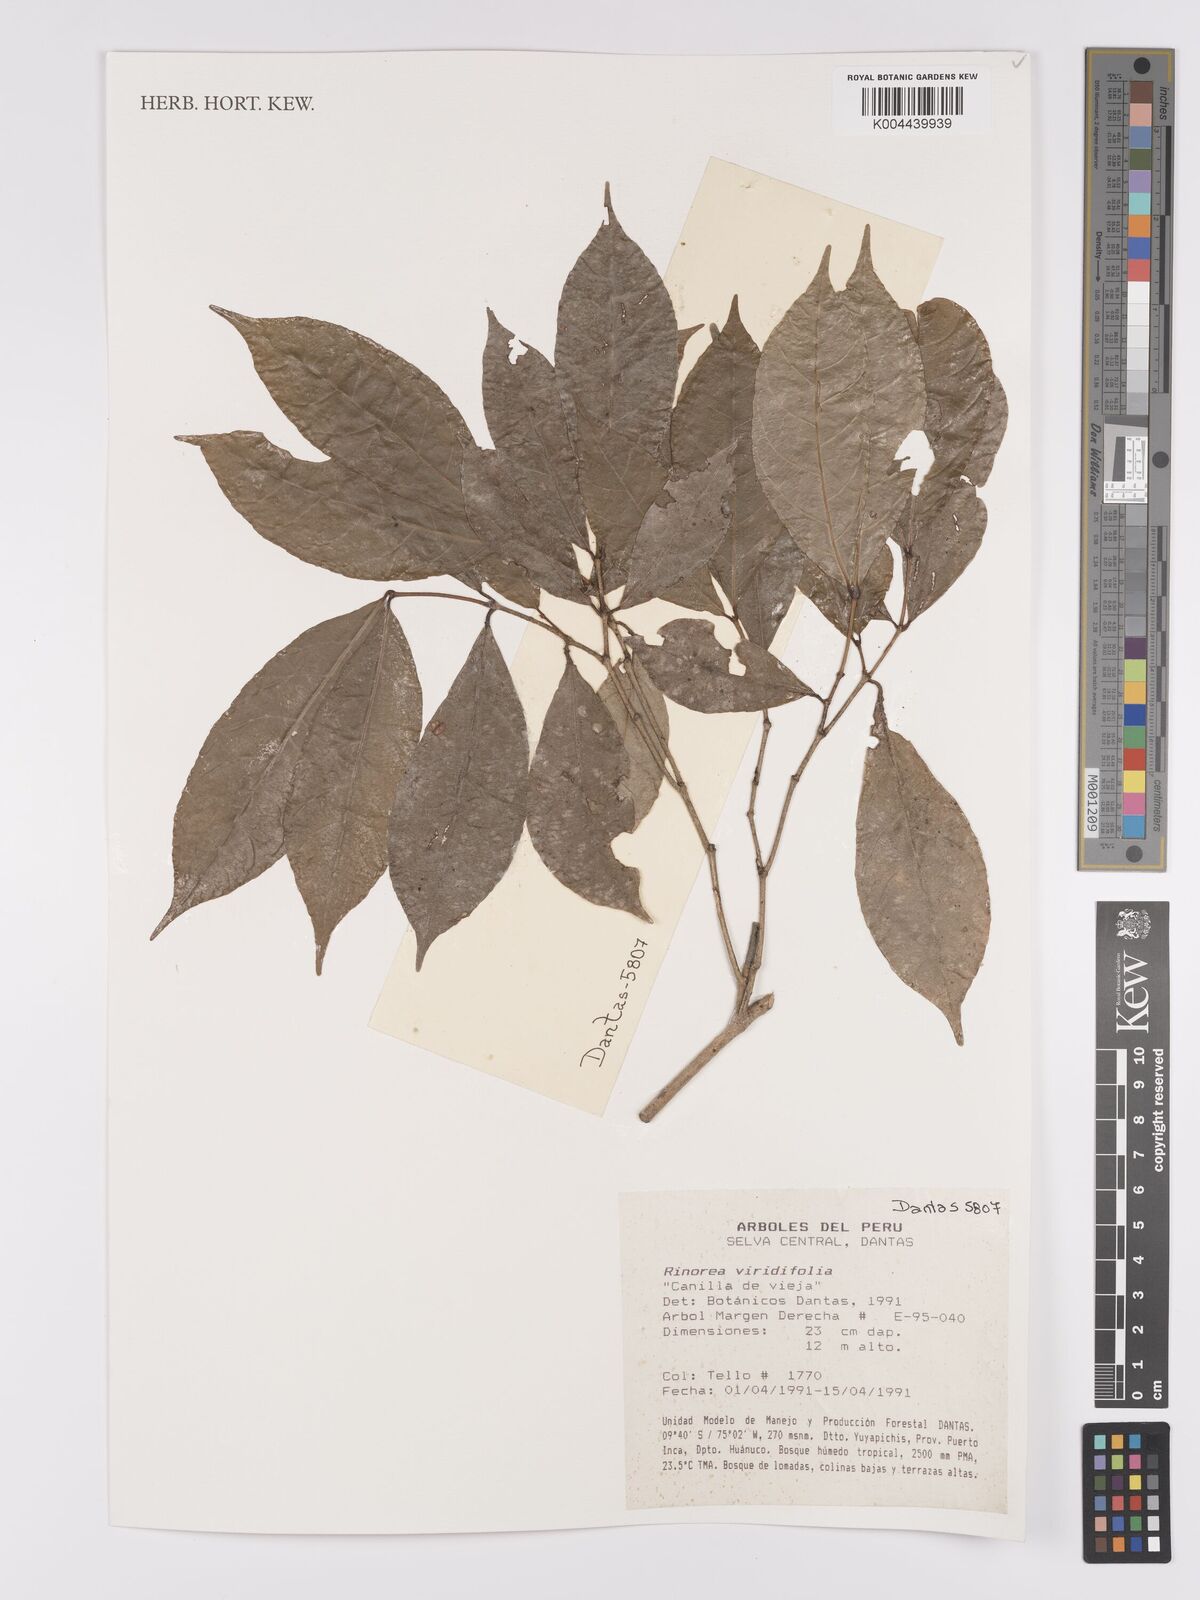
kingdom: Plantae
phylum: Tracheophyta
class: Magnoliopsida
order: Malpighiales
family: Violaceae
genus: Rinorea
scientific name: Rinorea viridifolia
